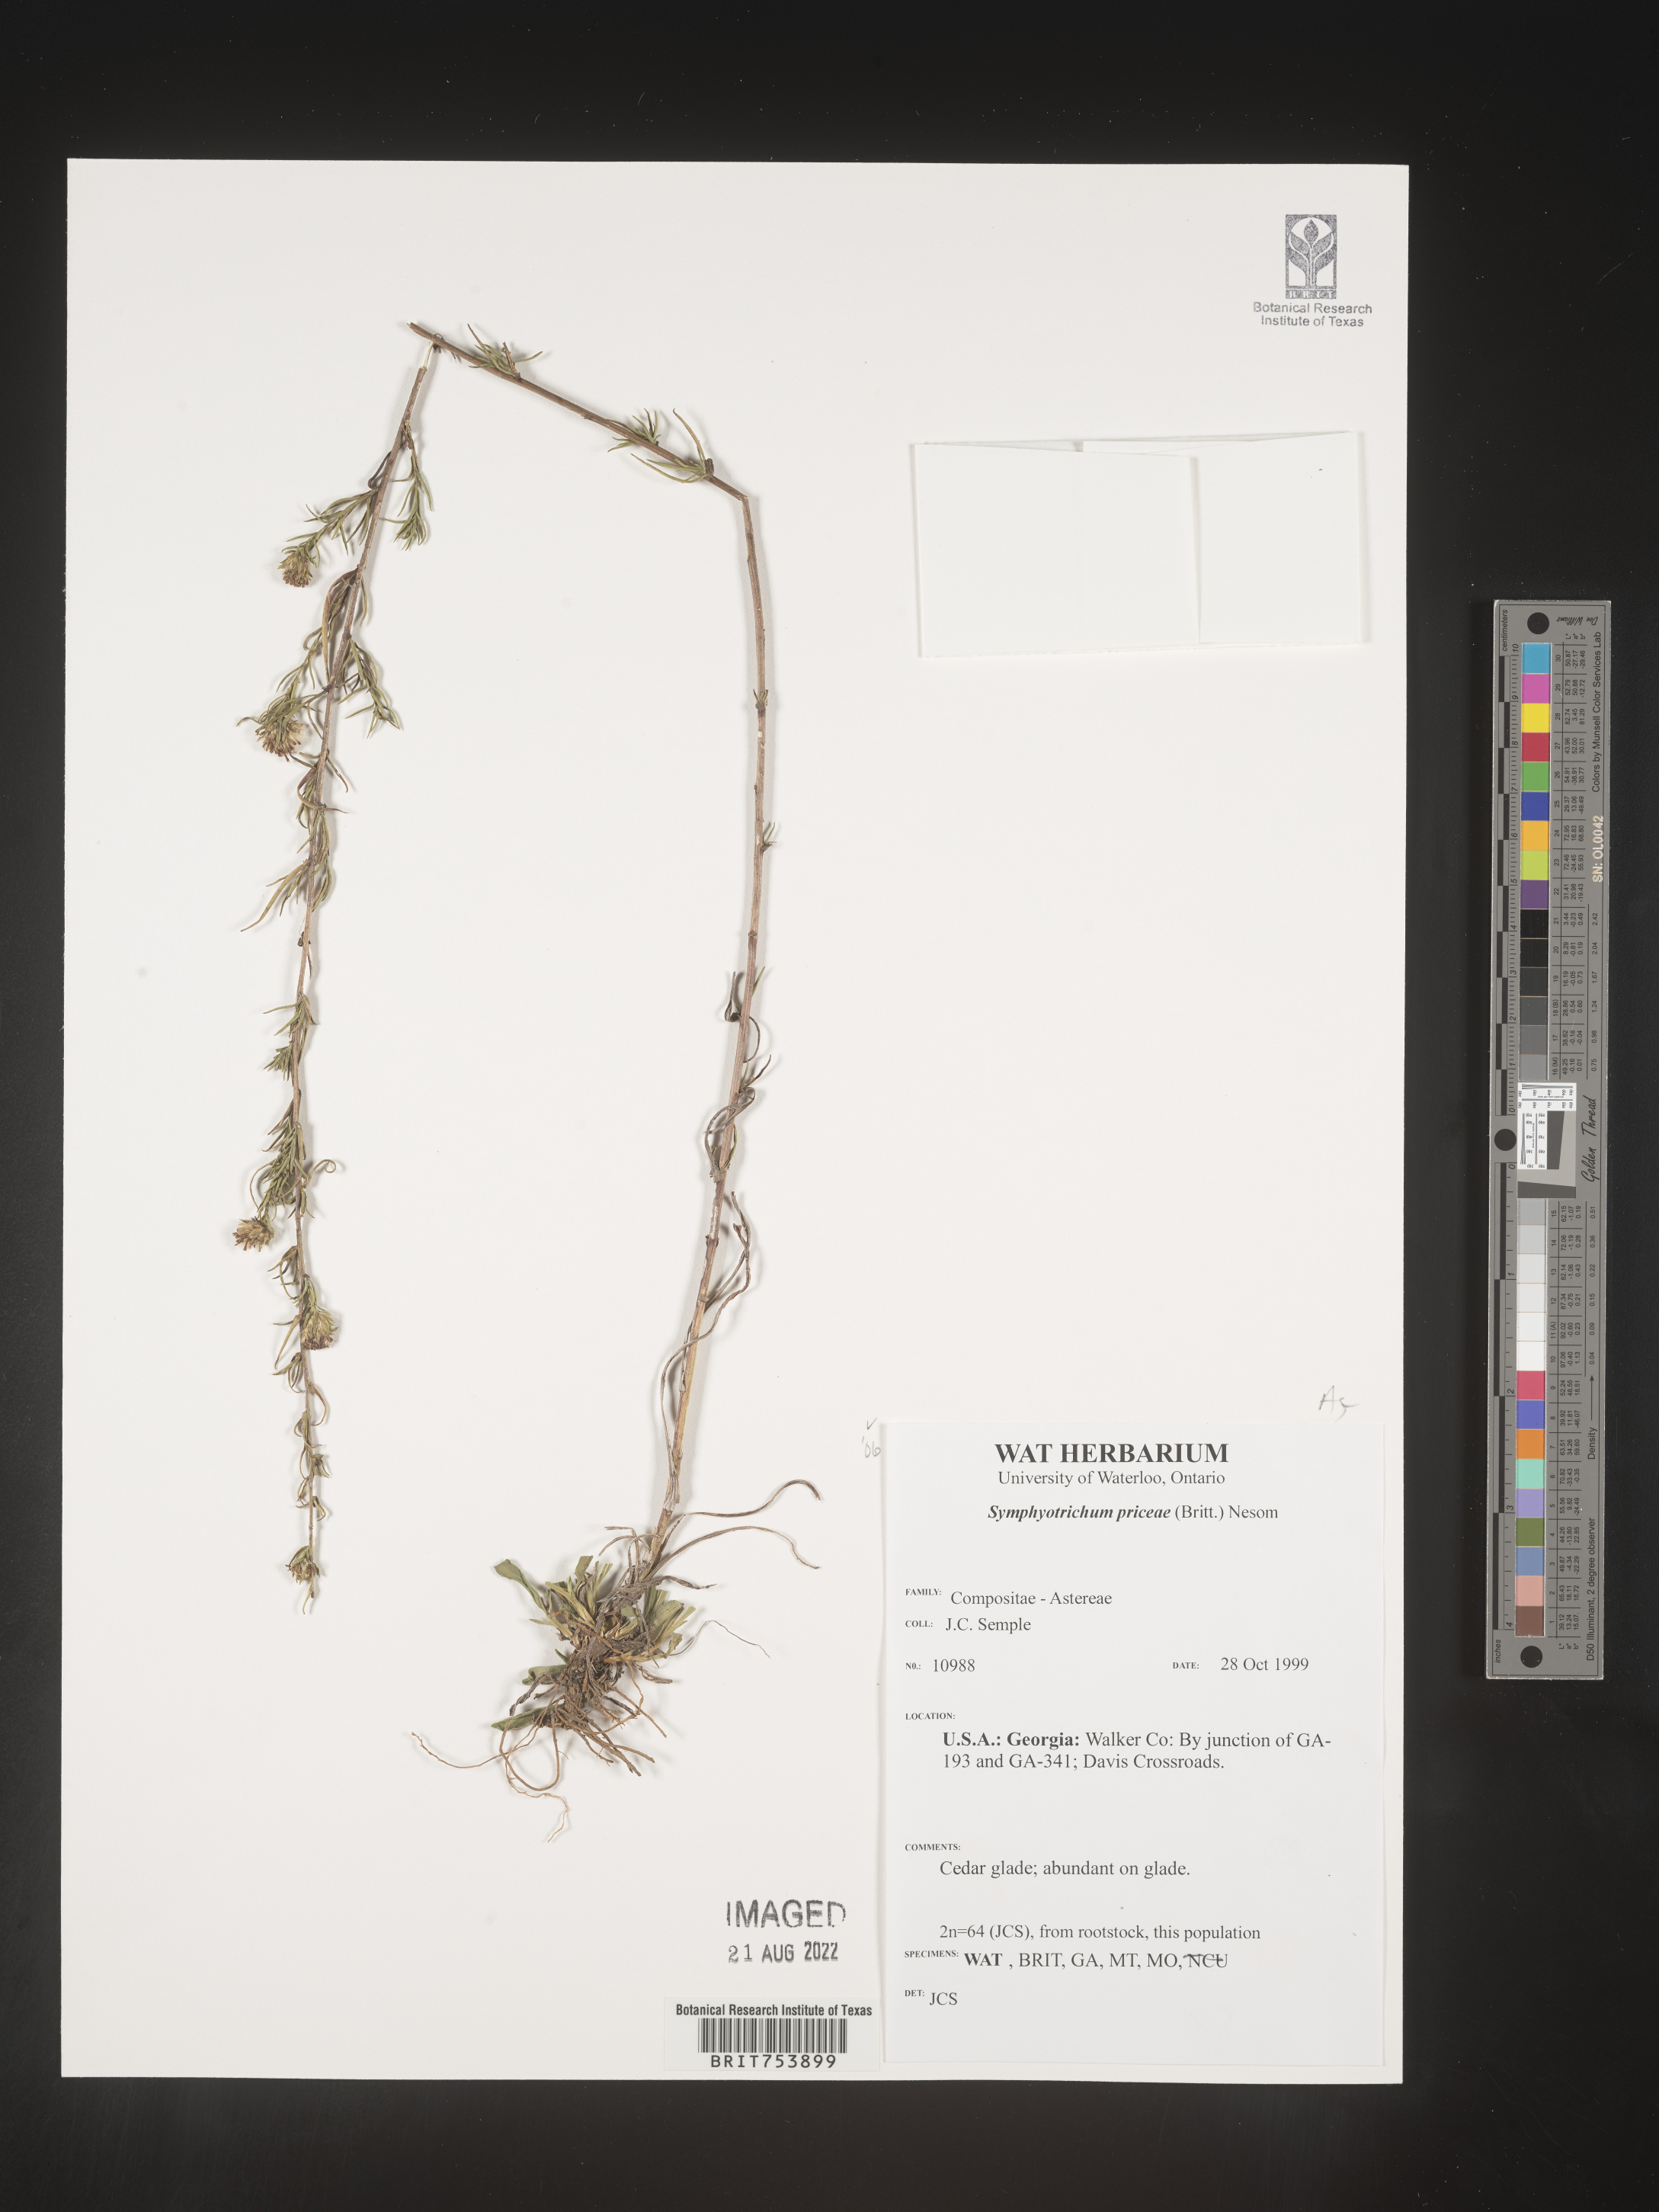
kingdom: Plantae
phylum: Tracheophyta
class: Magnoliopsida
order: Asterales
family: Asteraceae
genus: Symphyotrichum
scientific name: Symphyotrichum priceae
